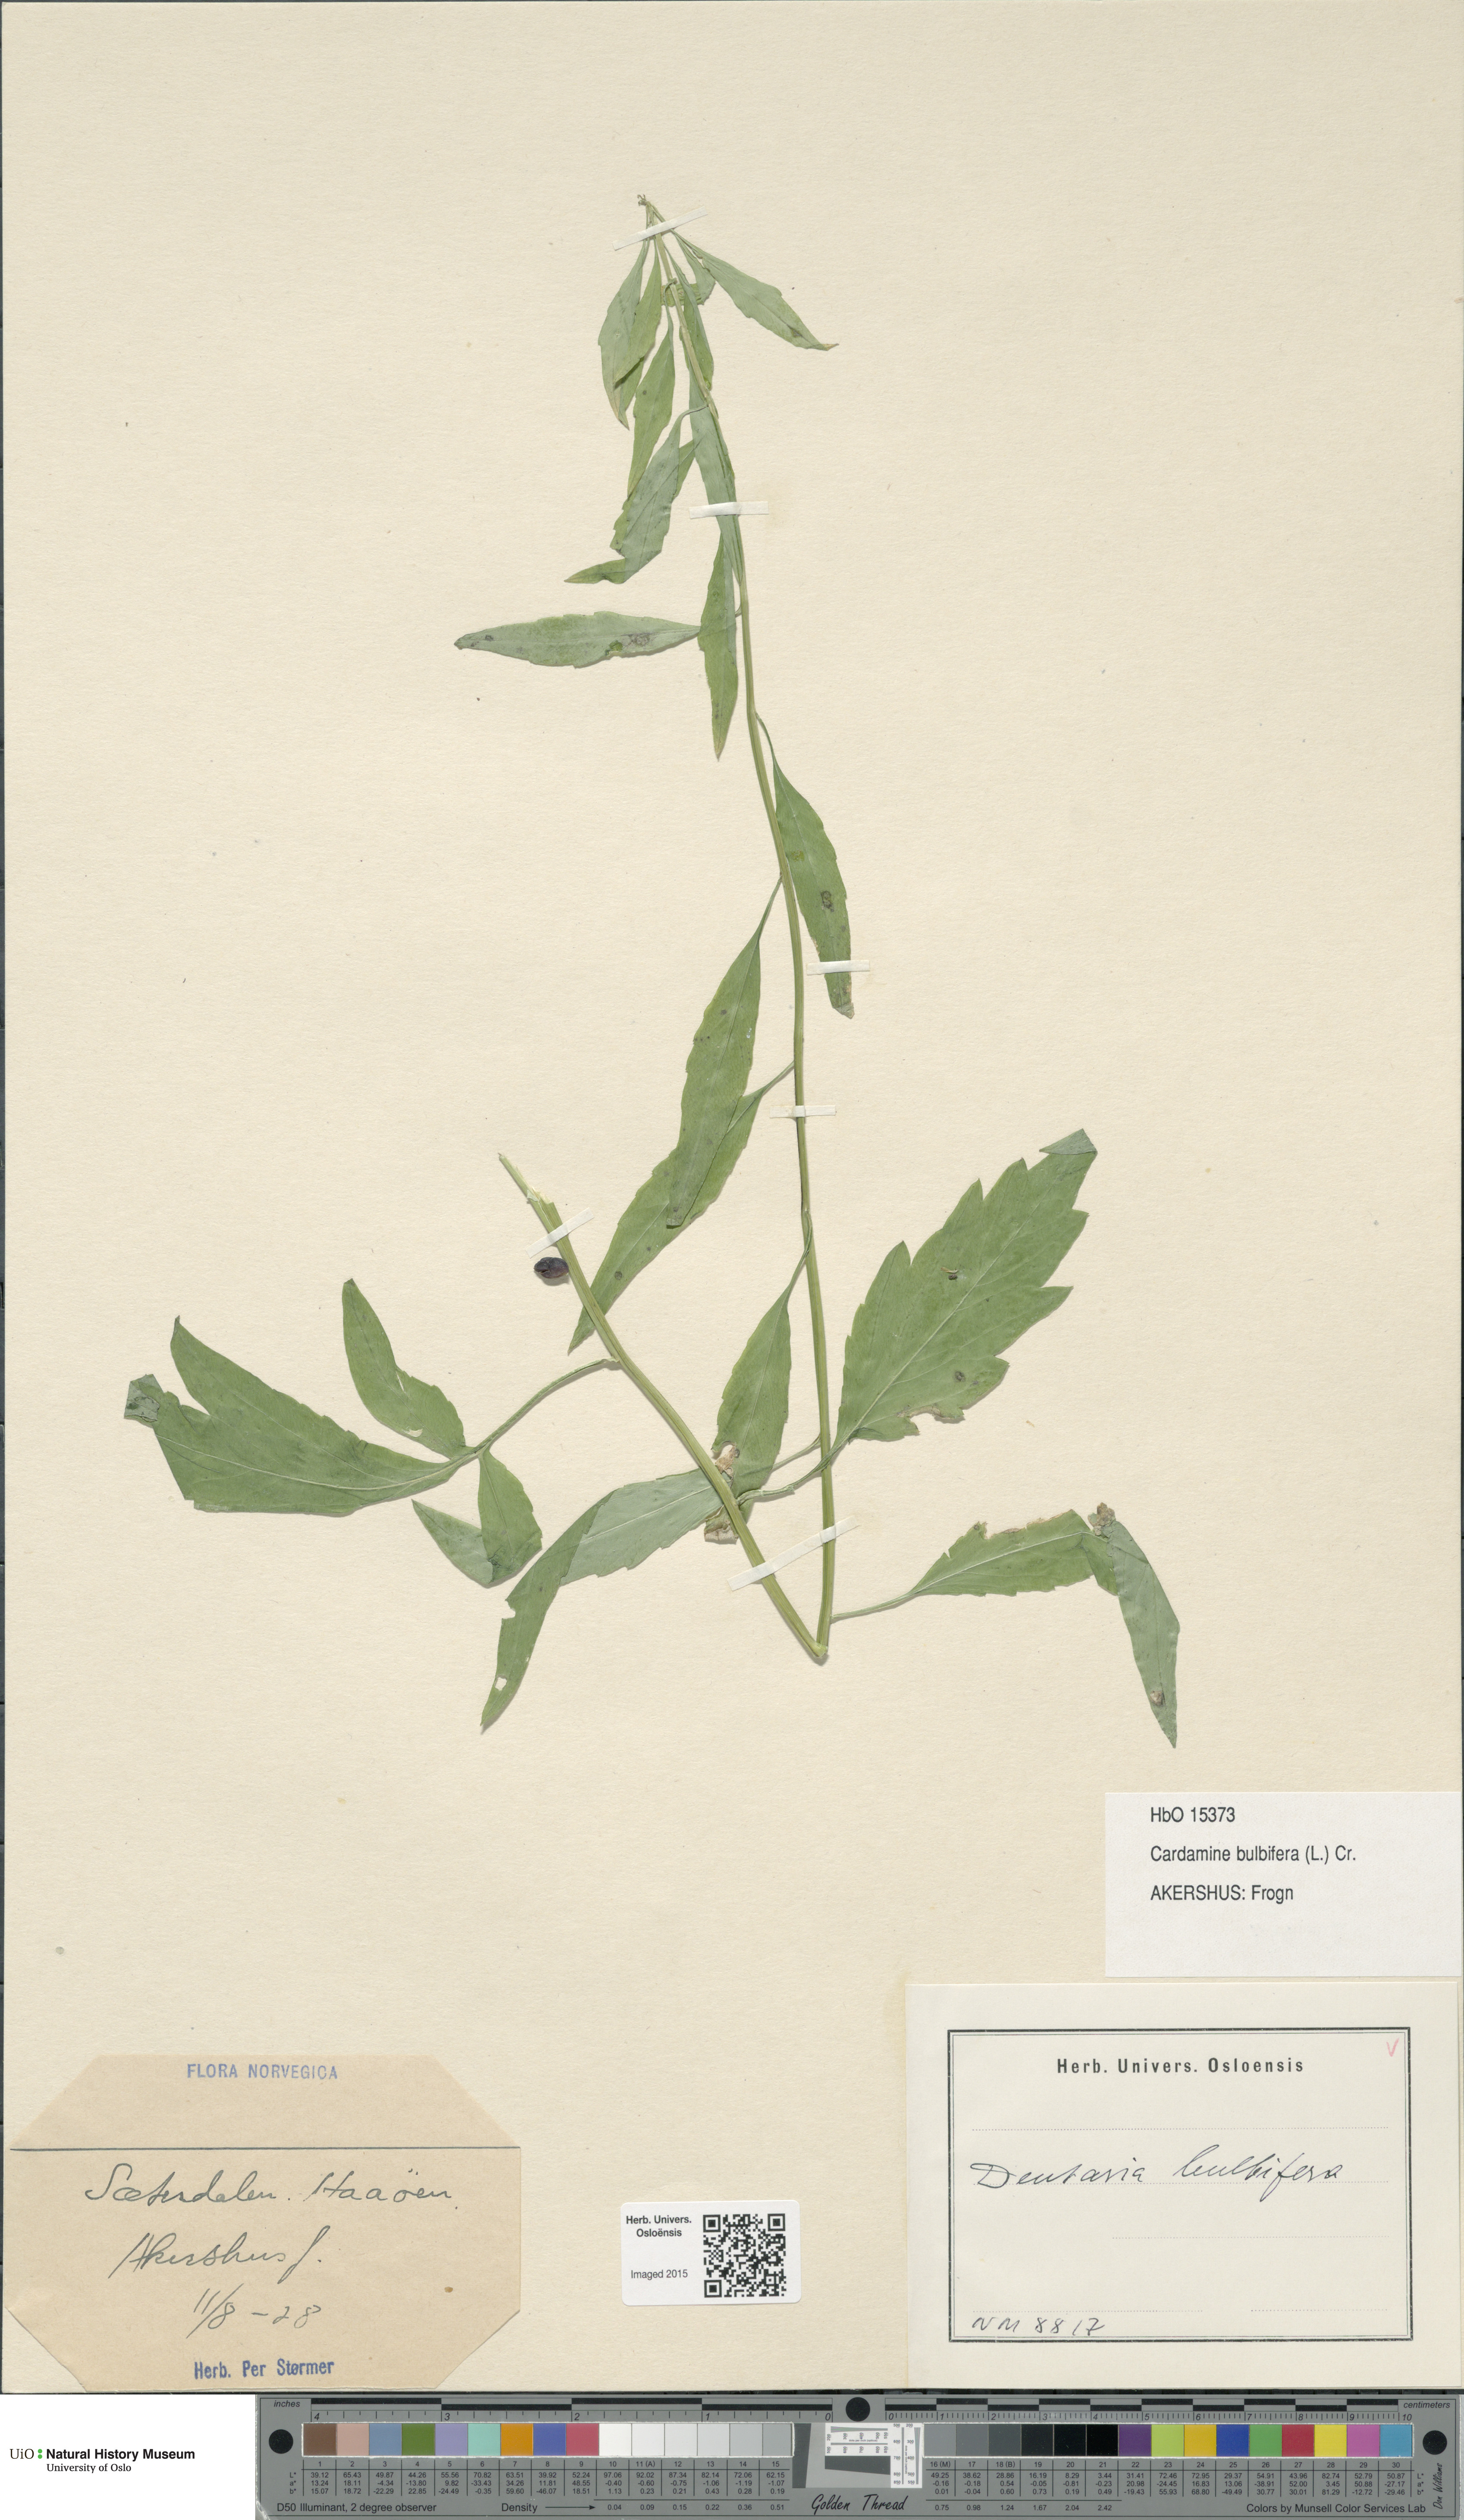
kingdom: Plantae
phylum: Tracheophyta
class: Magnoliopsida
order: Brassicales
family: Brassicaceae
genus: Cardamine
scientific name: Cardamine bulbifera
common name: Coralroot bittercress
